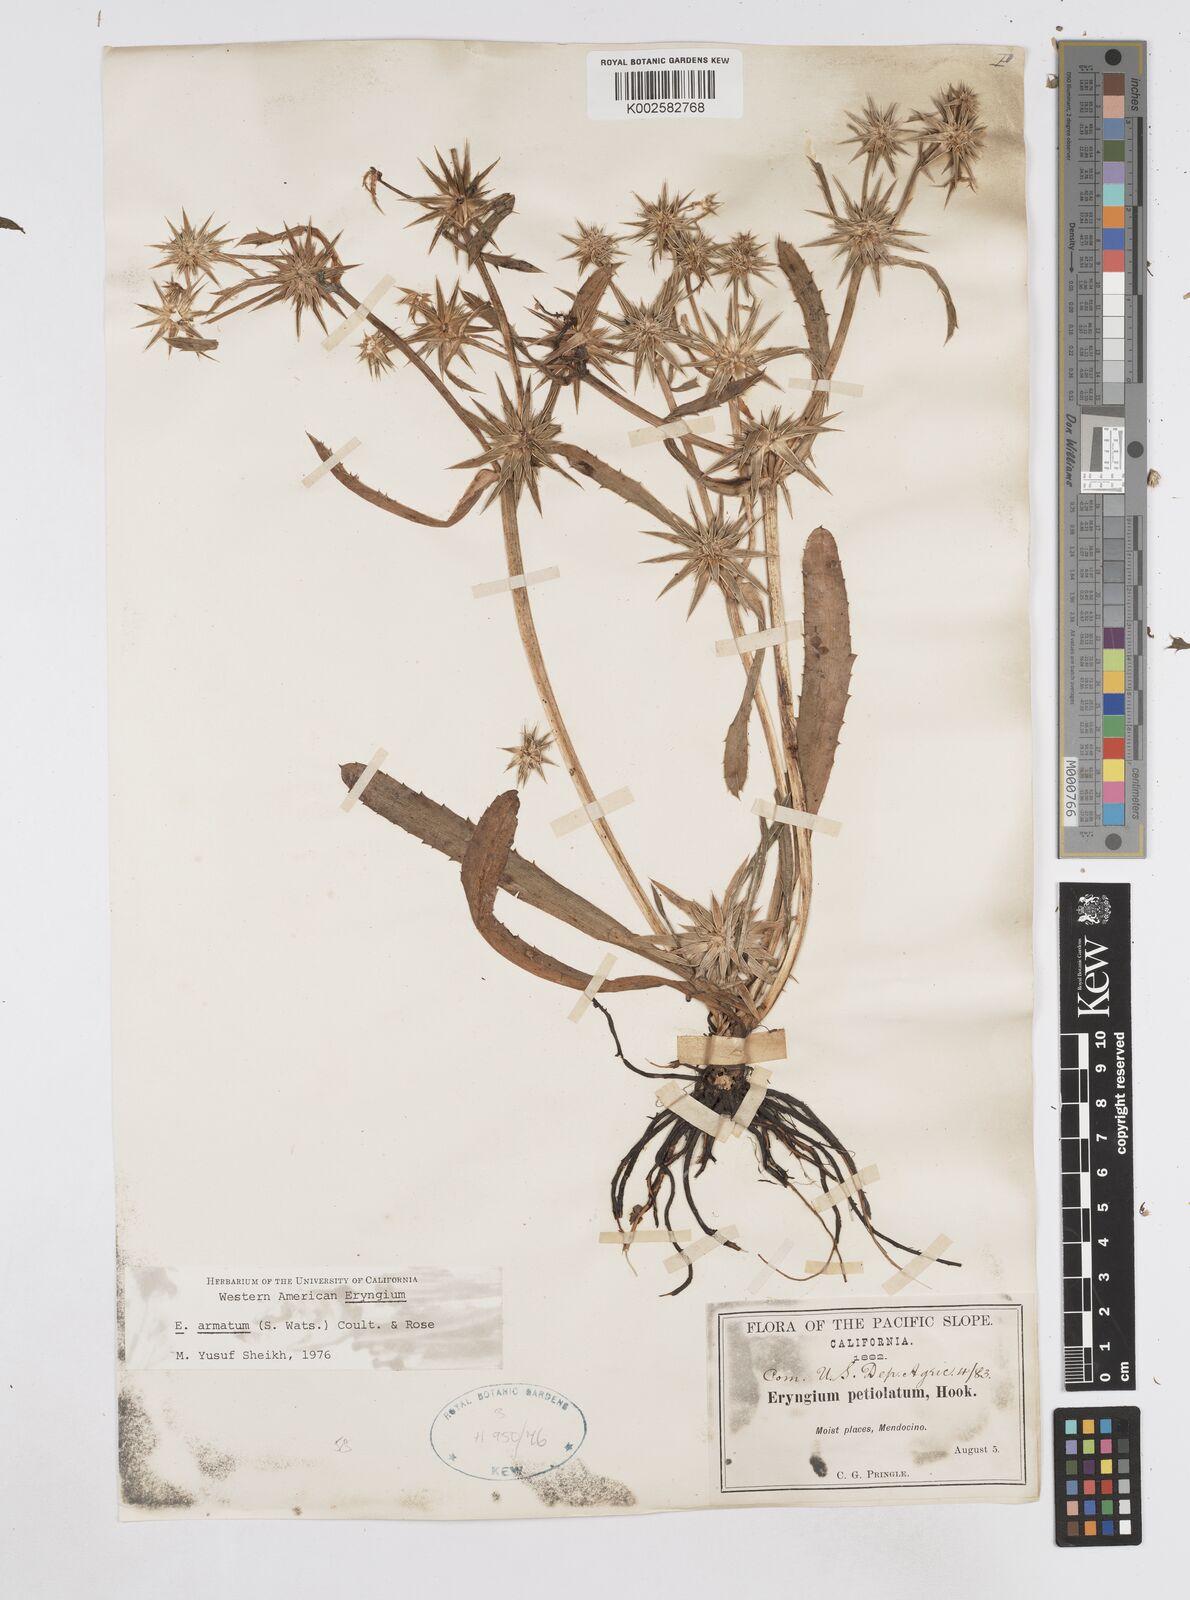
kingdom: Plantae
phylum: Tracheophyta
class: Magnoliopsida
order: Apiales
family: Apiaceae
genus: Eryngium
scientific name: Eryngium armatum
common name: Coyote thistle
